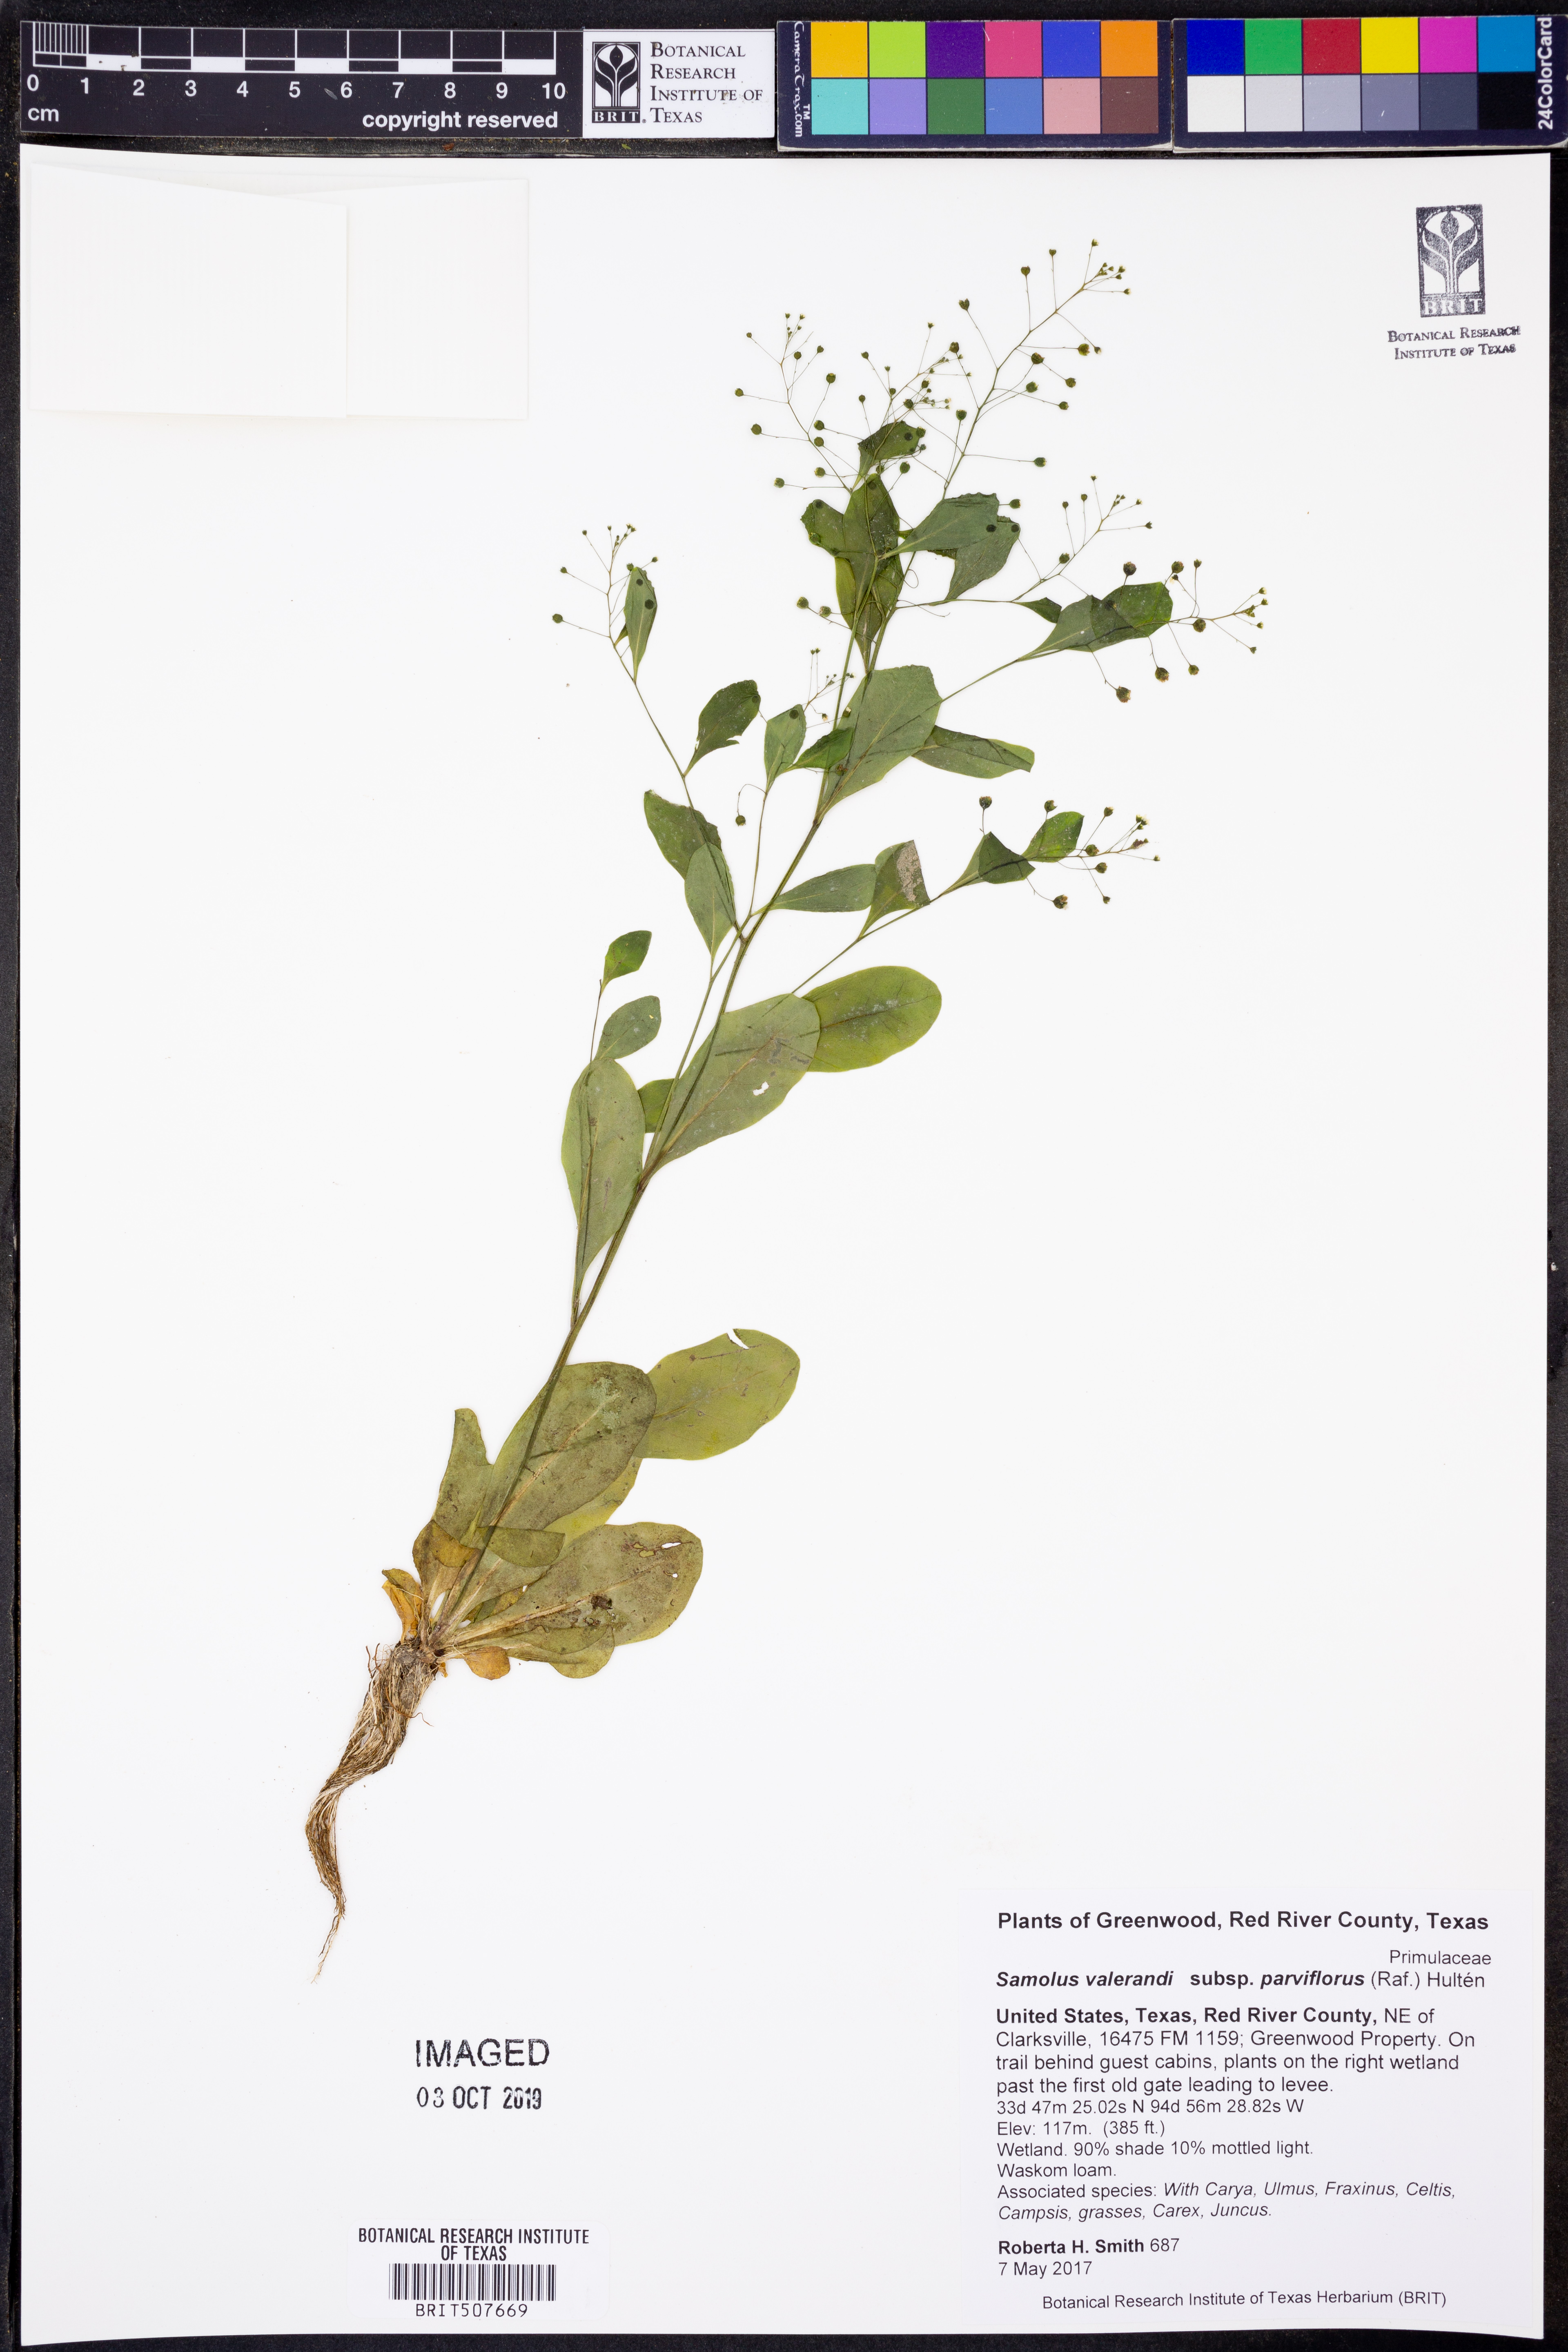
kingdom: Plantae
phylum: Tracheophyta
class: Magnoliopsida
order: Ericales
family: Primulaceae
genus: Samolus
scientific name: Samolus parviflorus
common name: False water pimpernel
